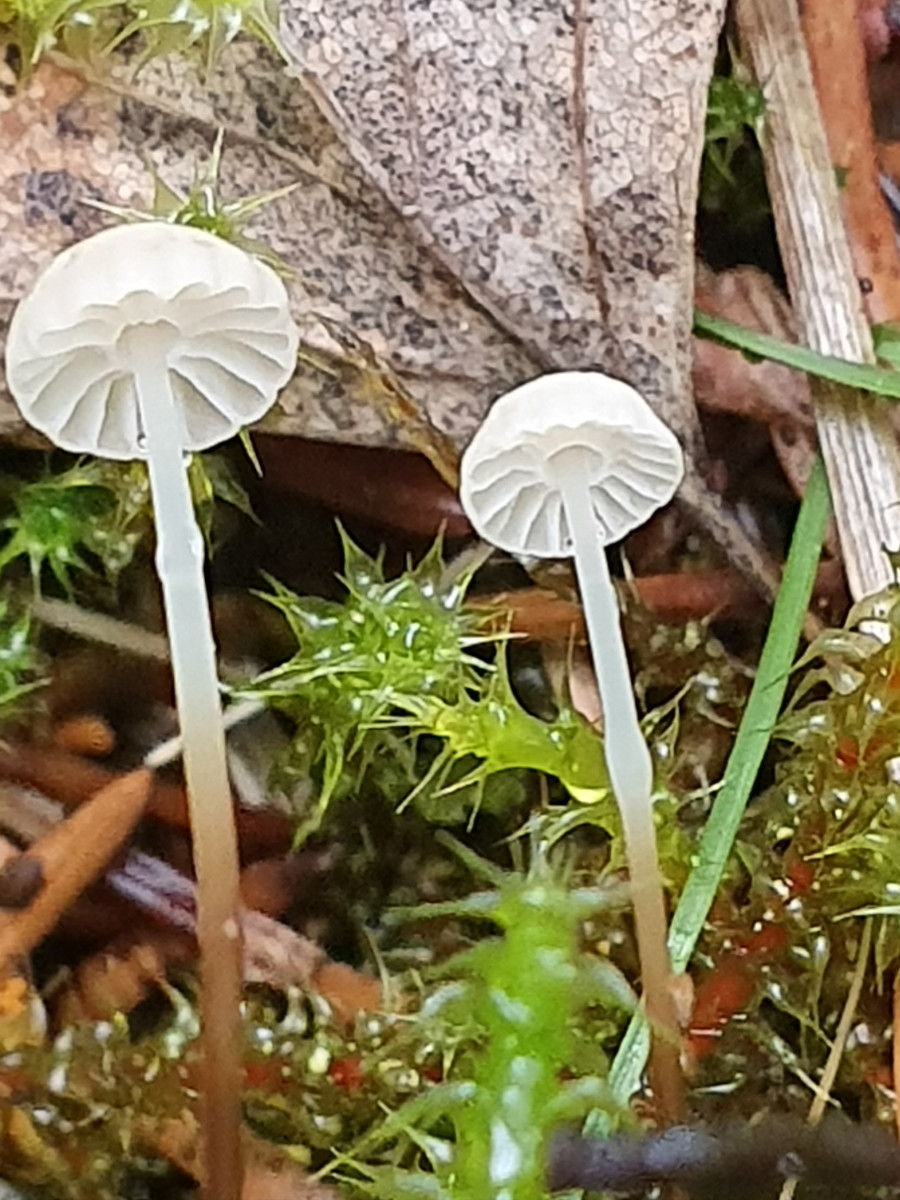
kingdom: Fungi
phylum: Basidiomycota
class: Agaricomycetes
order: Agaricales
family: Marasmiaceae
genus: Marasmius
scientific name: Marasmius wettsteinii
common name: Wettsteins bruskhat
